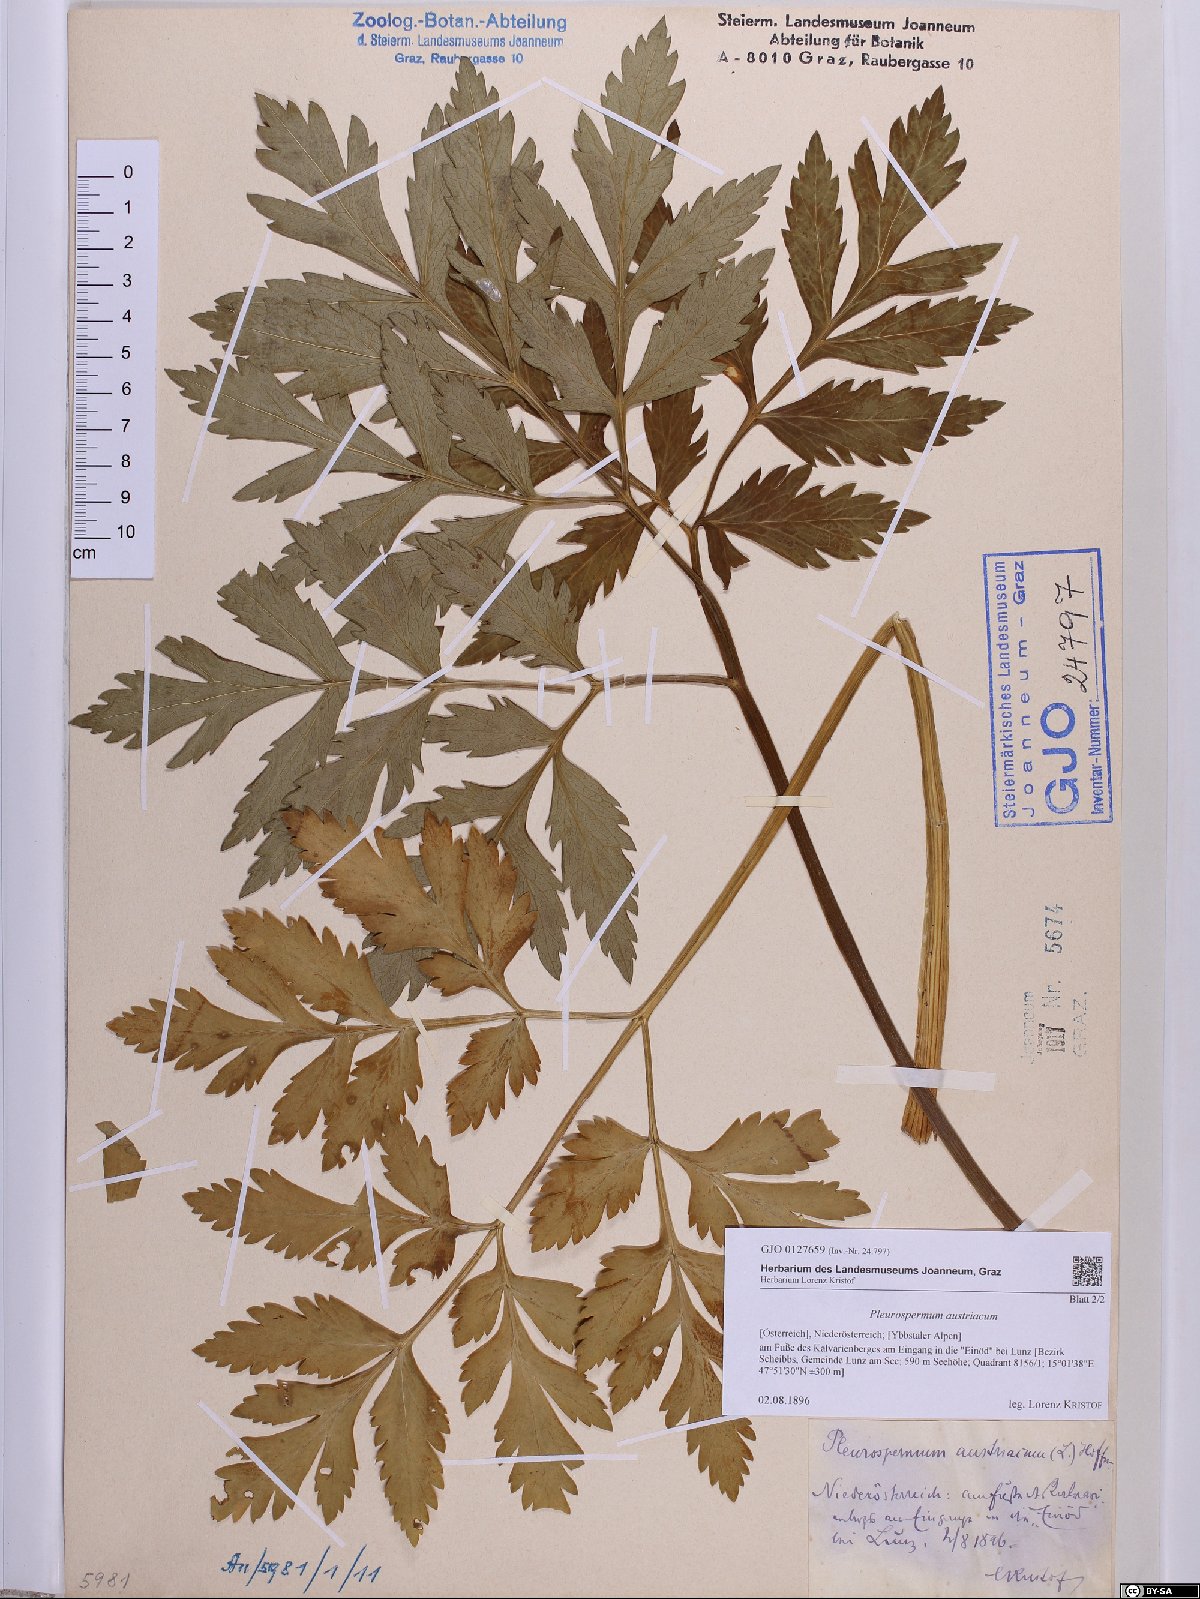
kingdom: Plantae
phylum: Tracheophyta
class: Magnoliopsida
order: Apiales
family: Apiaceae
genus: Pleurospermum
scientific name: Pleurospermum austriacum
